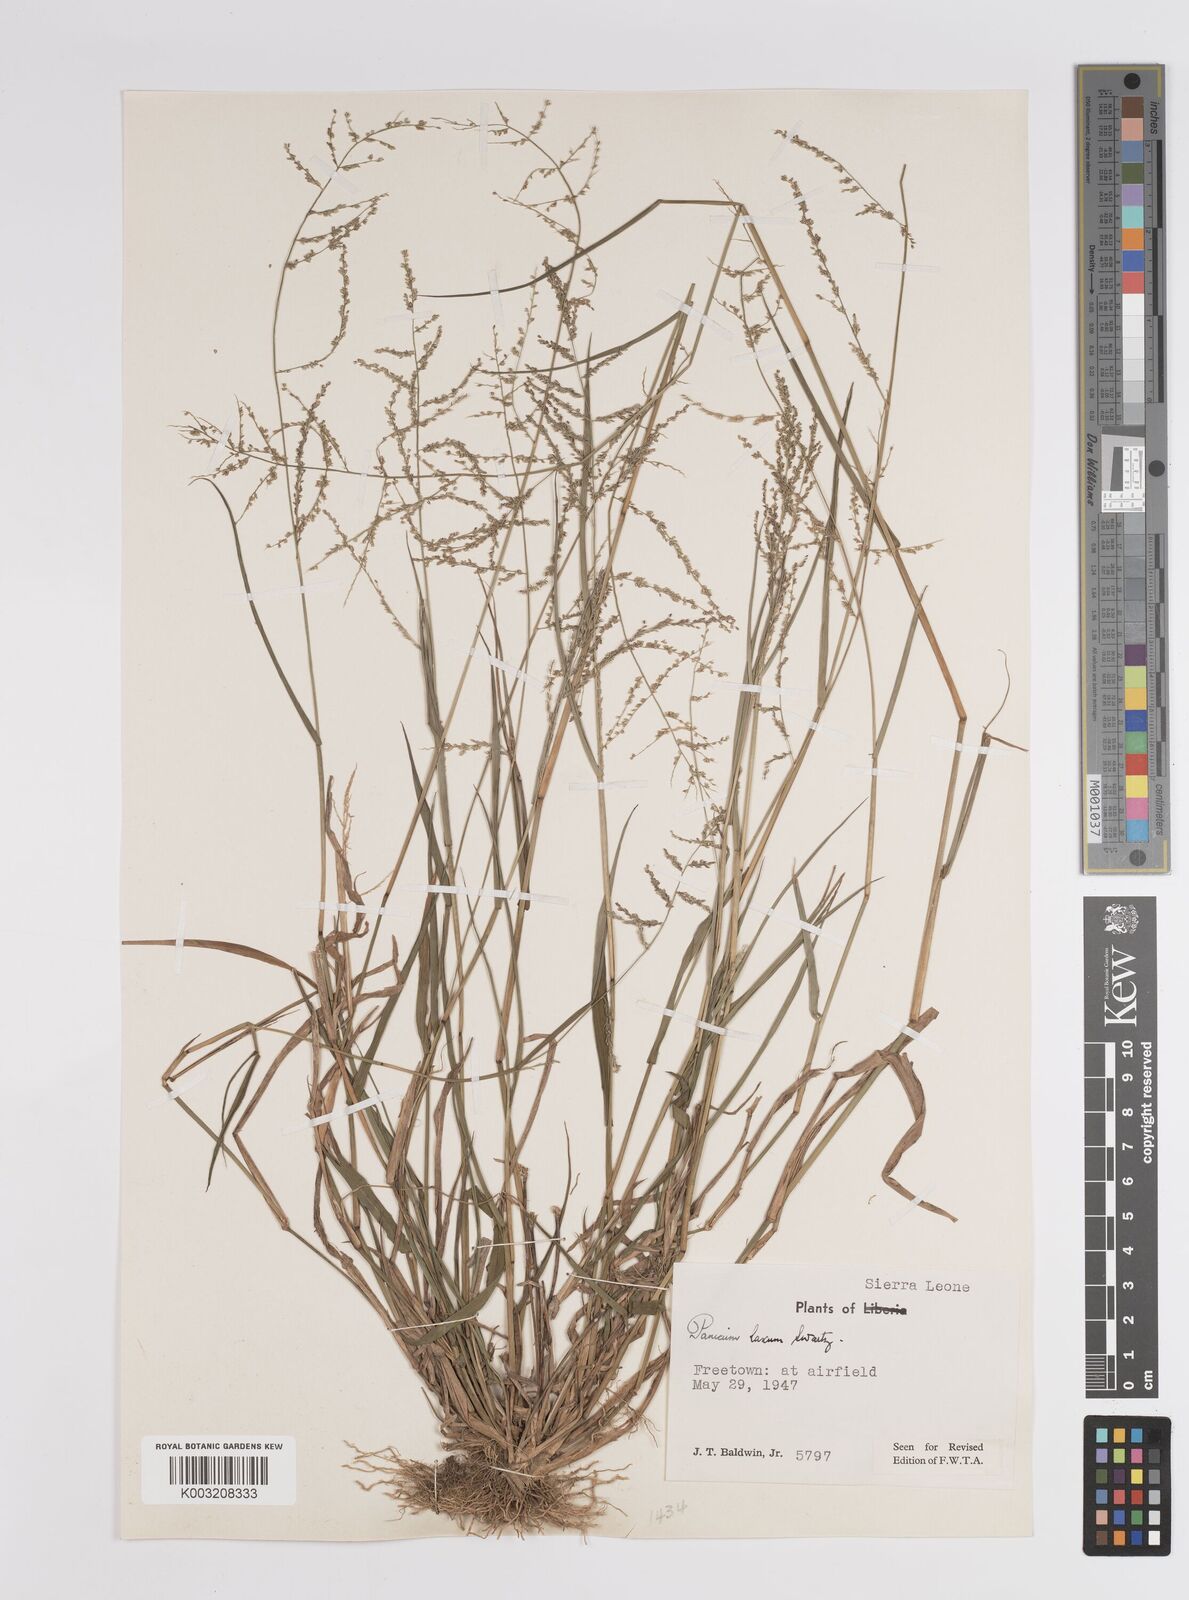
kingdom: Plantae
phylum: Tracheophyta
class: Liliopsida
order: Poales
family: Poaceae
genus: Steinchisma
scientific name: Steinchisma laxum
